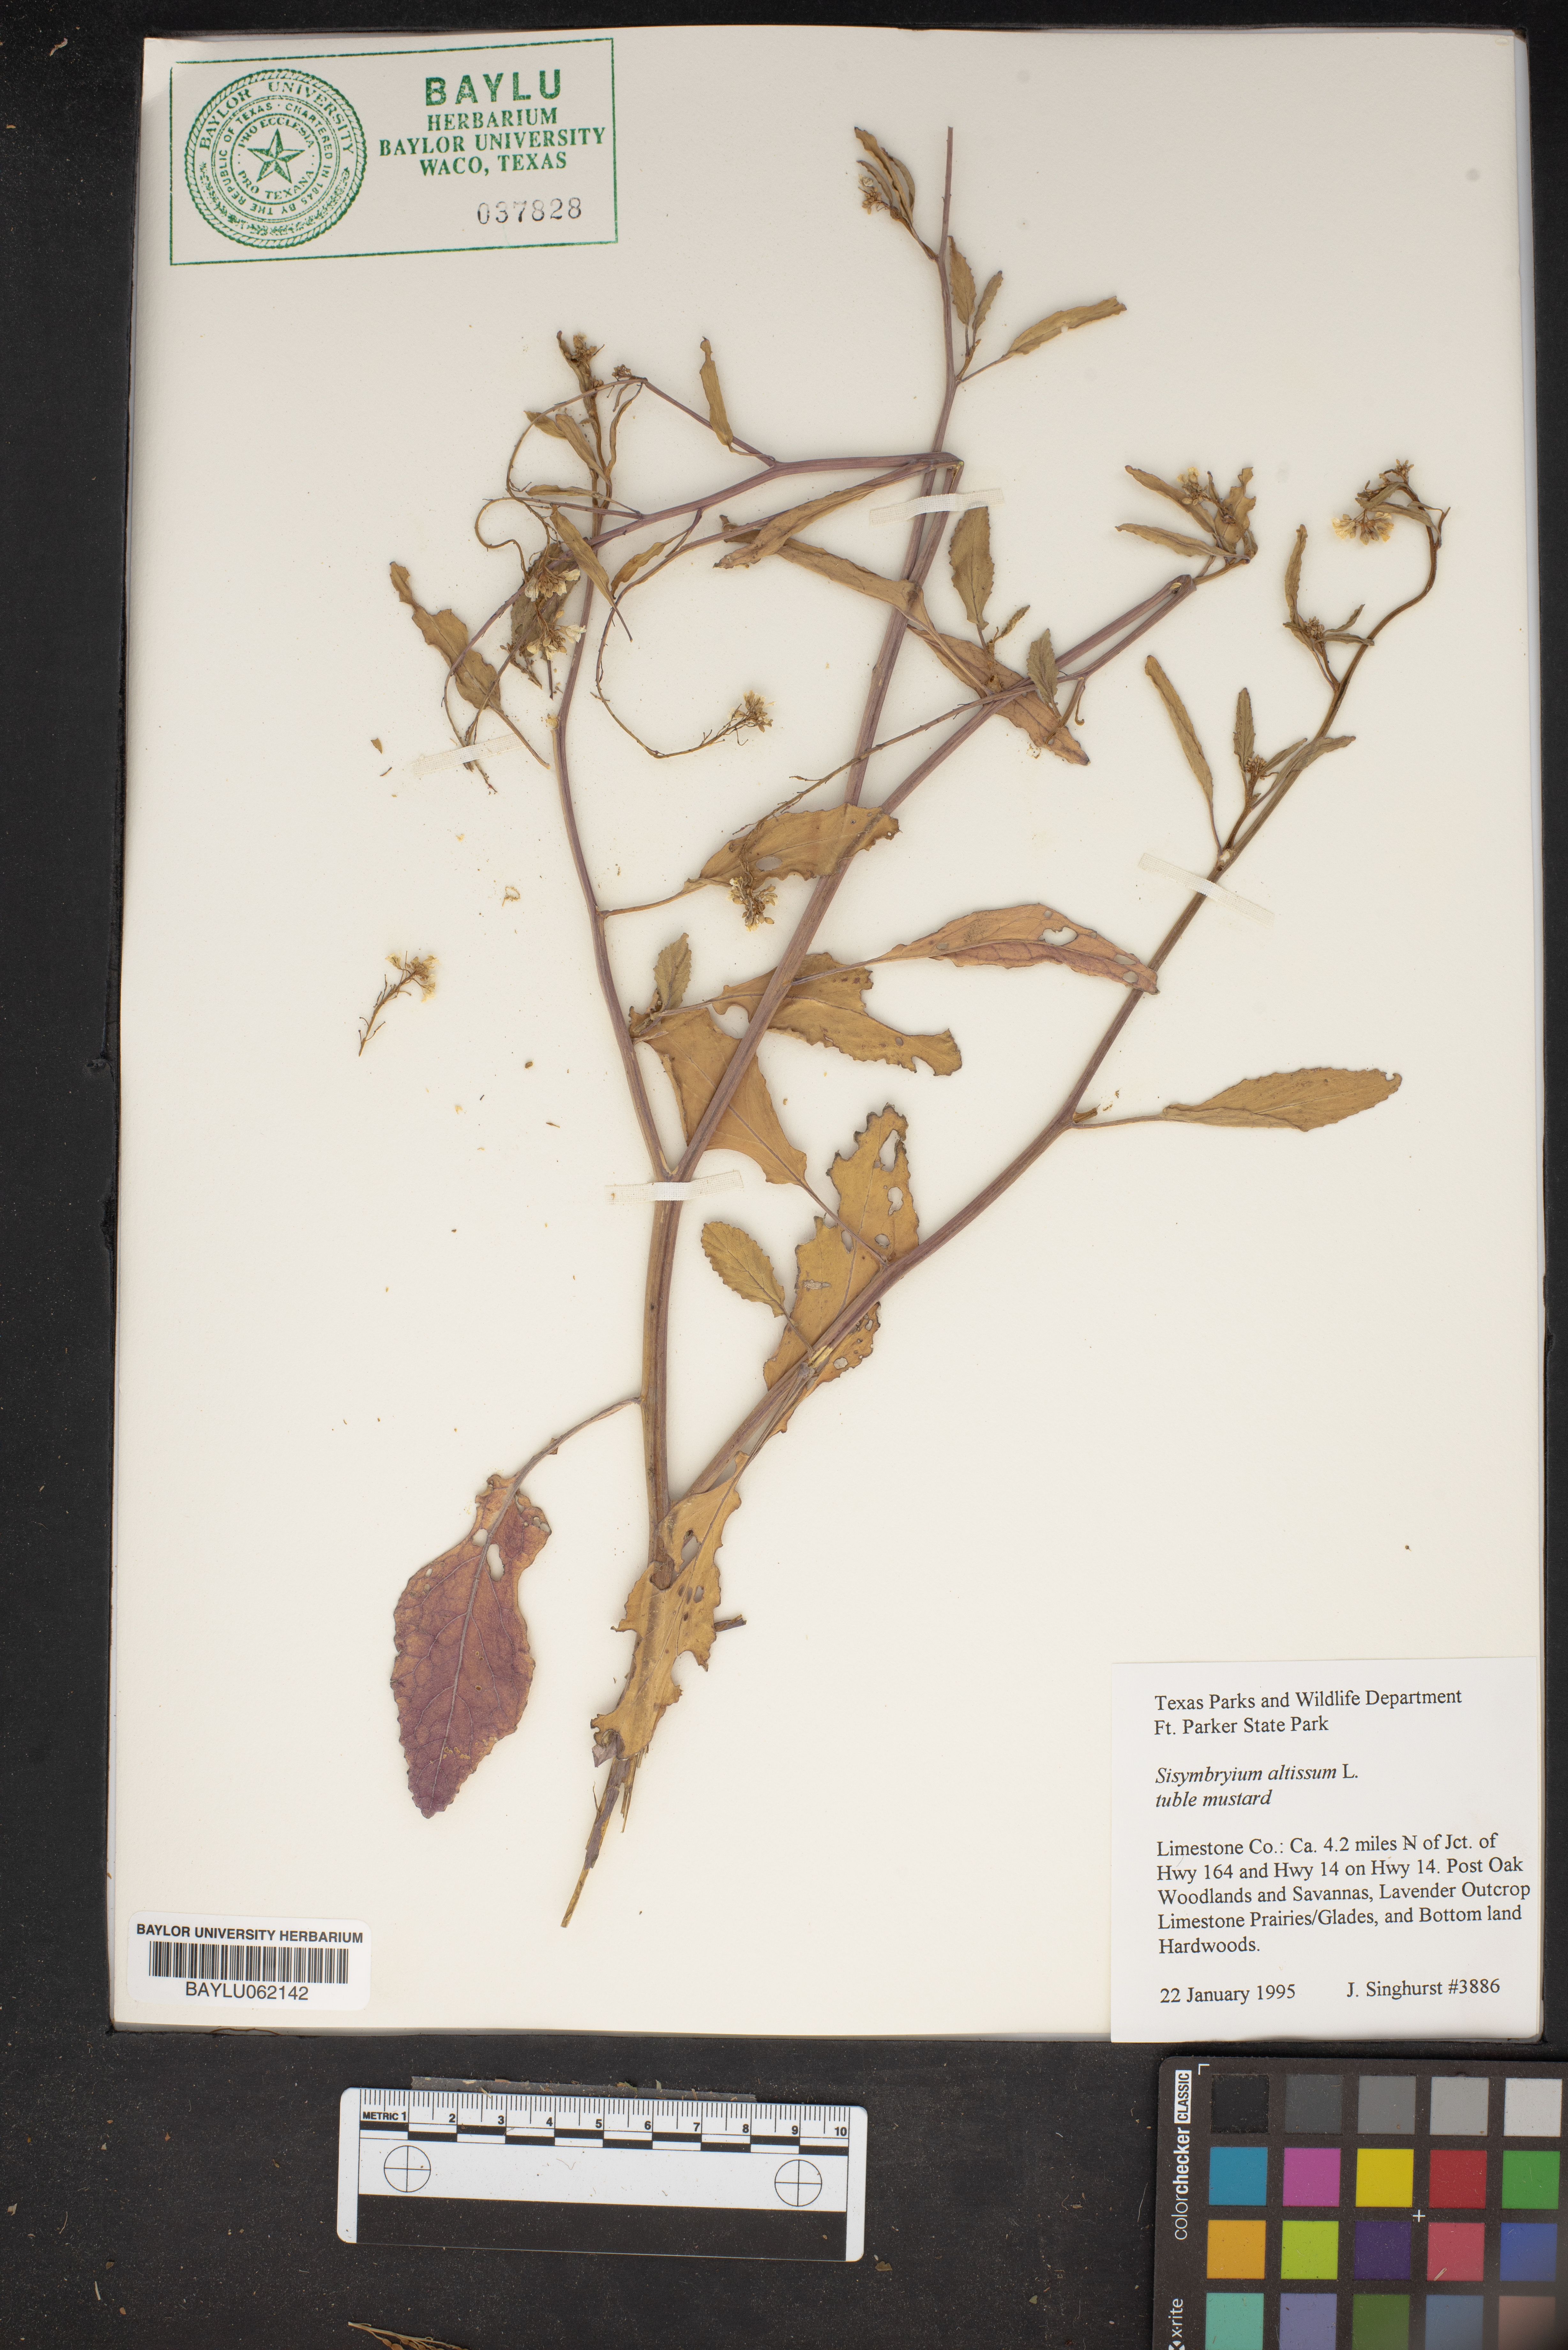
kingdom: Plantae
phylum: Tracheophyta
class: Magnoliopsida
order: Brassicales
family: Brassicaceae
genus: Sisymbrium
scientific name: Sisymbrium altissimum
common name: Tall rocket
